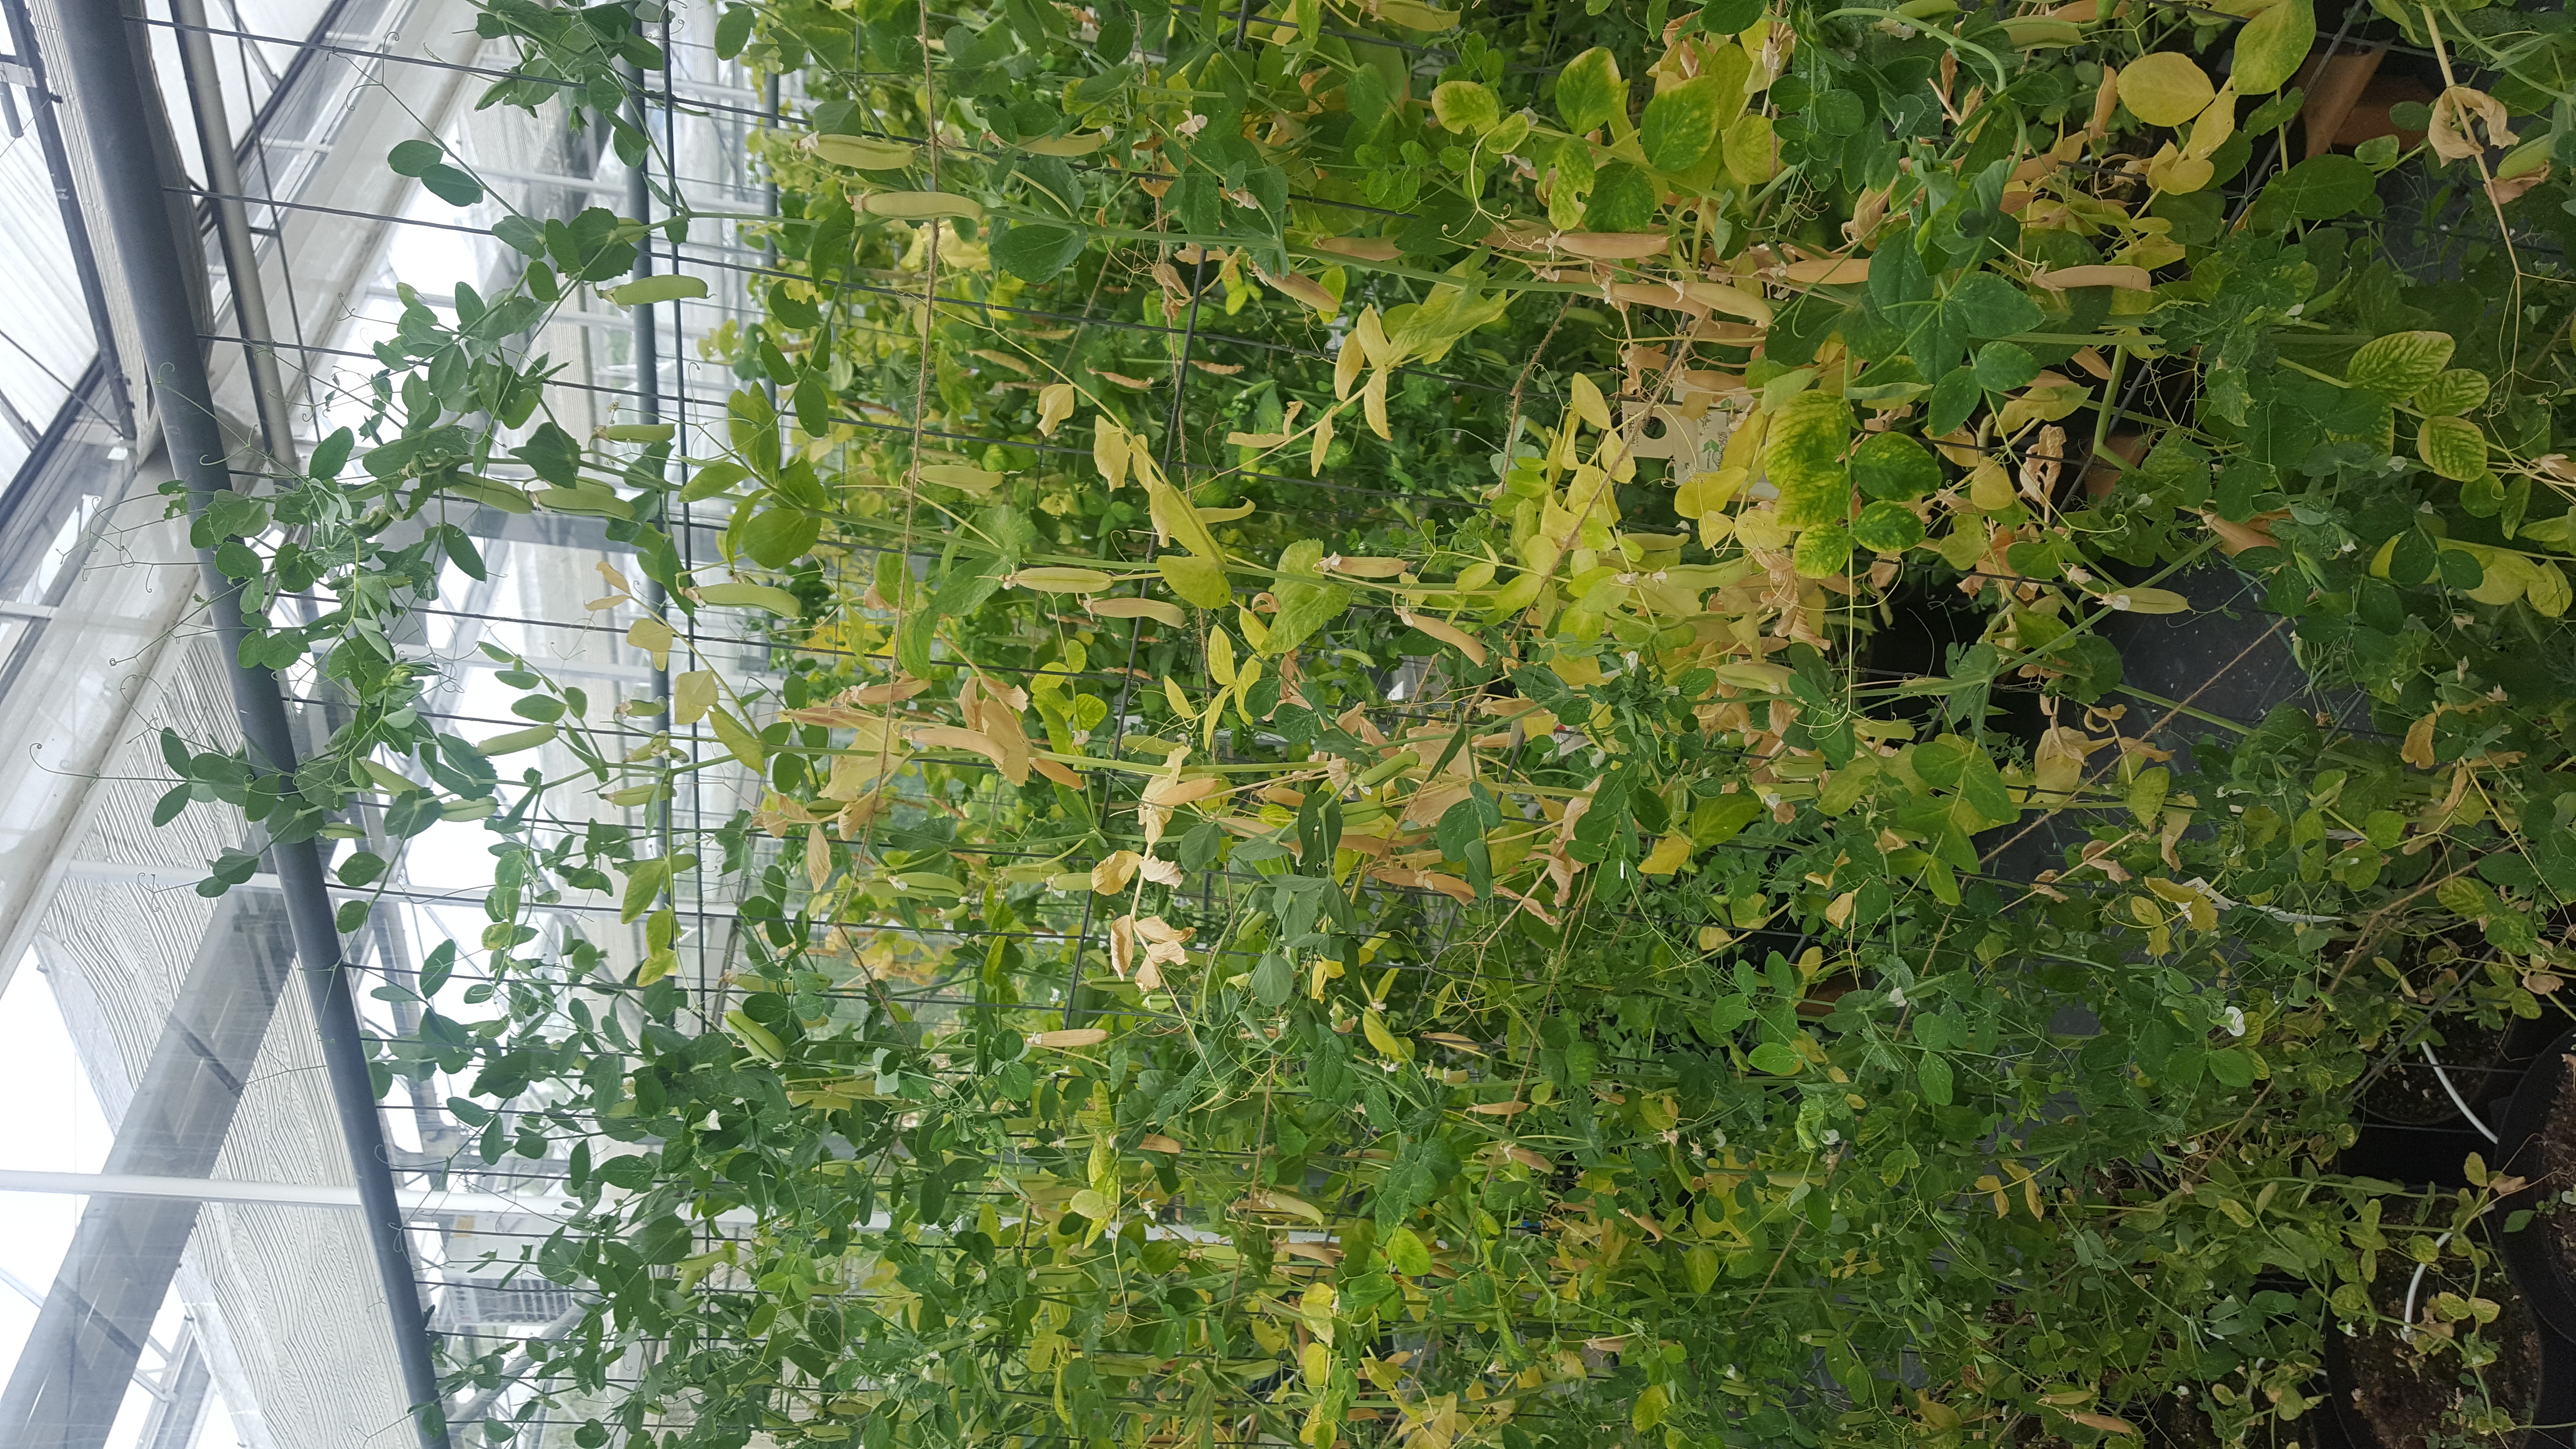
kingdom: Plantae
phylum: Tracheophyta
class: Magnoliopsida
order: Fabales
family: Fabaceae
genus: Lathyrus
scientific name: Lathyrus oleraceus
